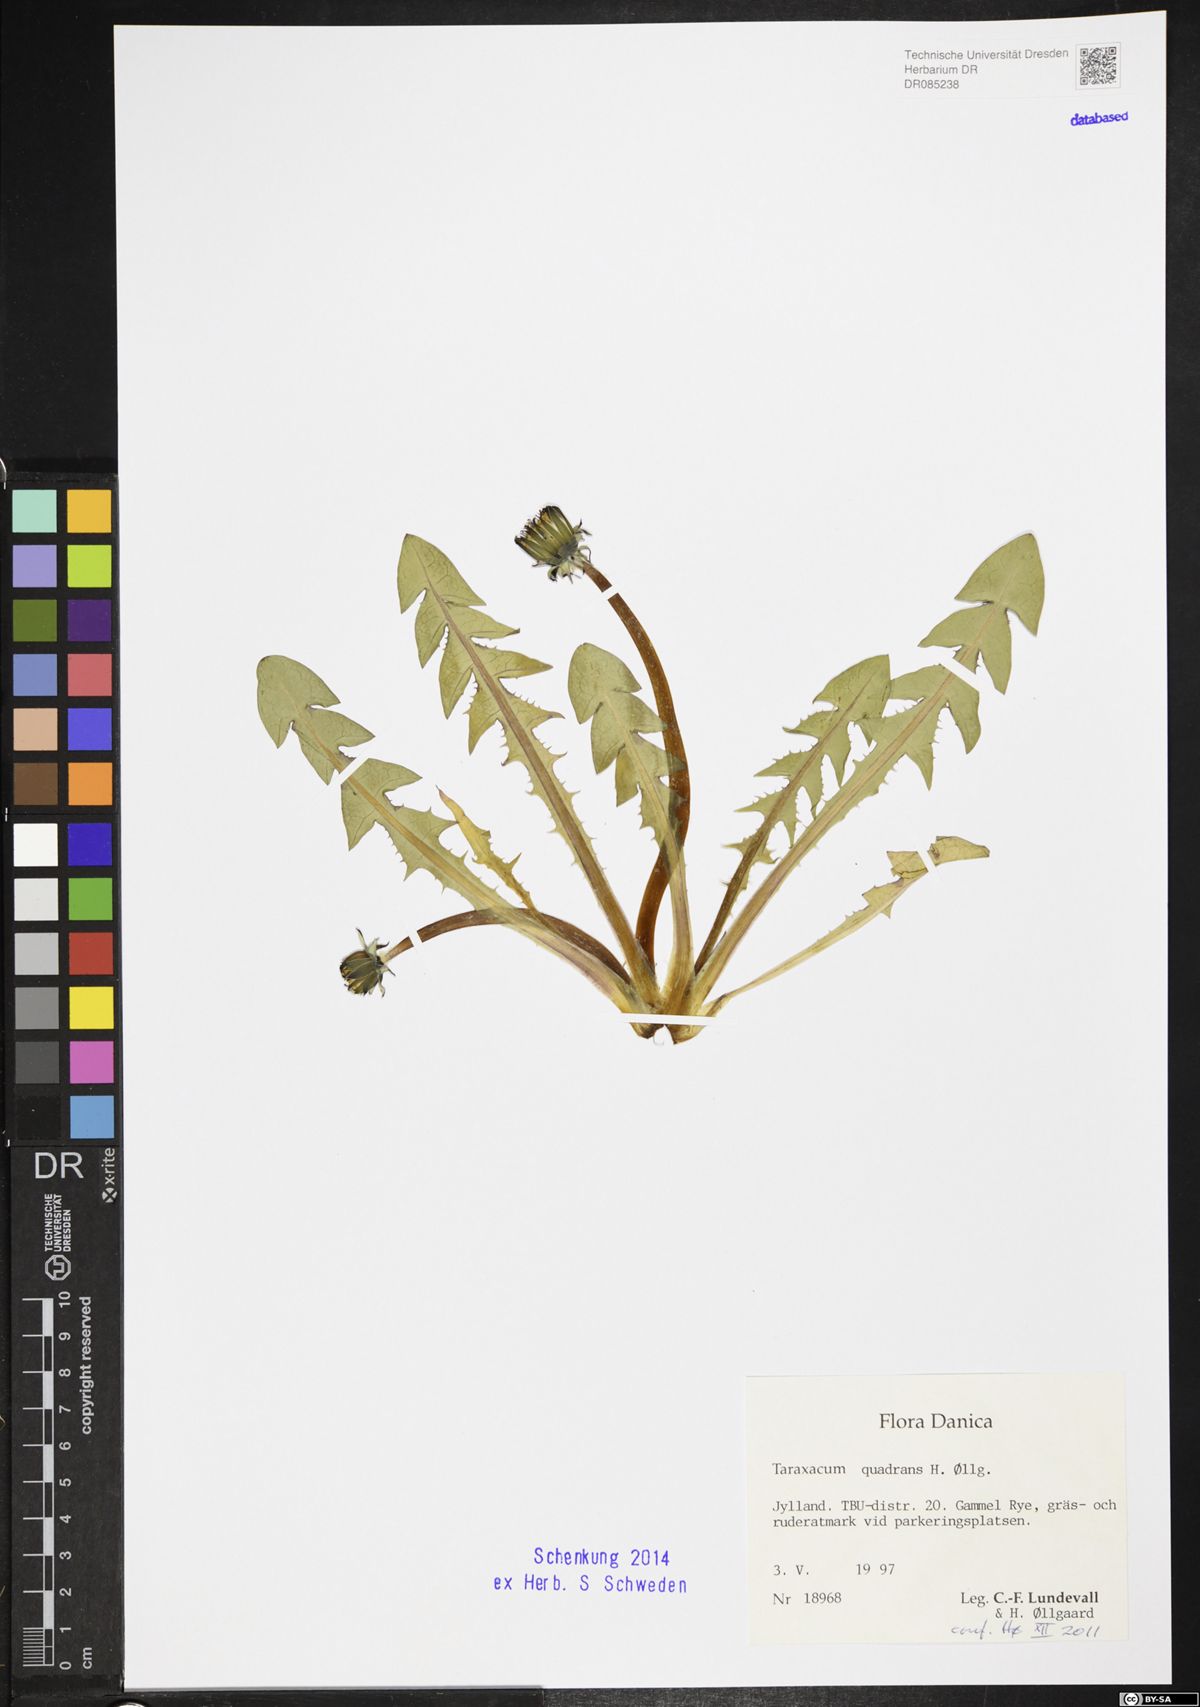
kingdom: Plantae
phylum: Tracheophyta
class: Magnoliopsida
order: Asterales
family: Asteraceae
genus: Taraxacum
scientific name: Taraxacum quadrans
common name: Fleshy-lobed dandelion
